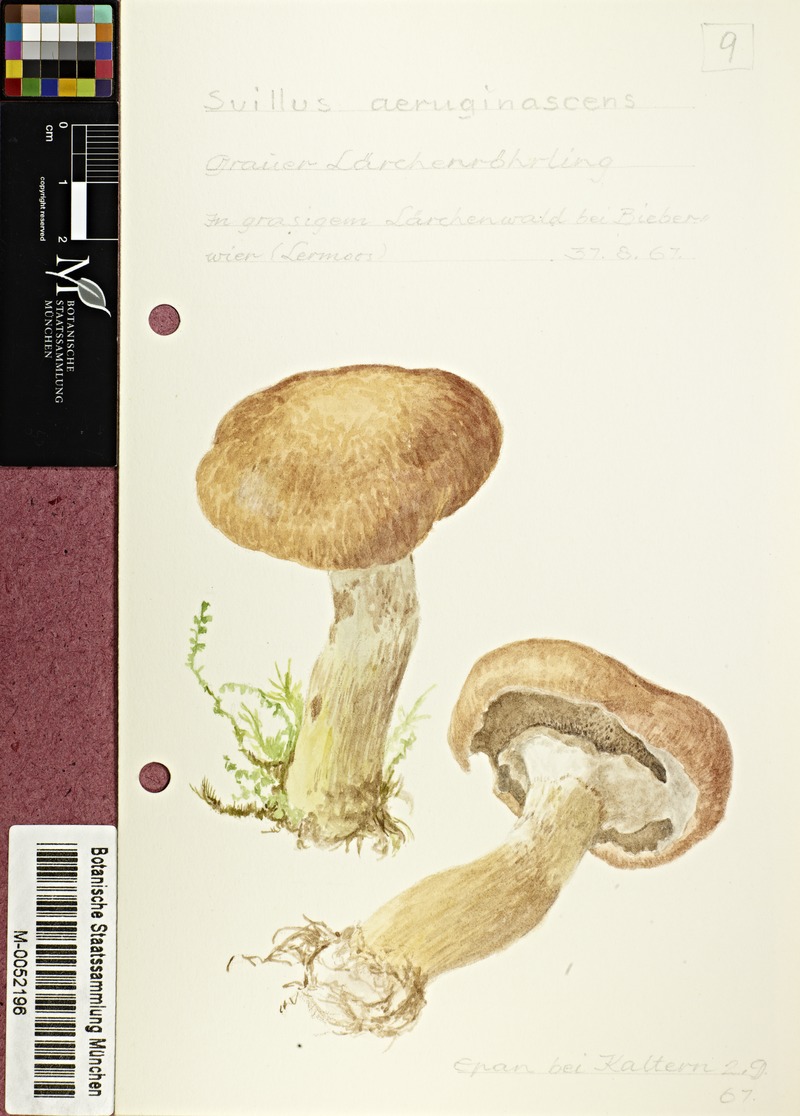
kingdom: Fungi
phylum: Basidiomycota
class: Agaricomycetes
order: Boletales
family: Suillaceae
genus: Suillus
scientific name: Suillus
